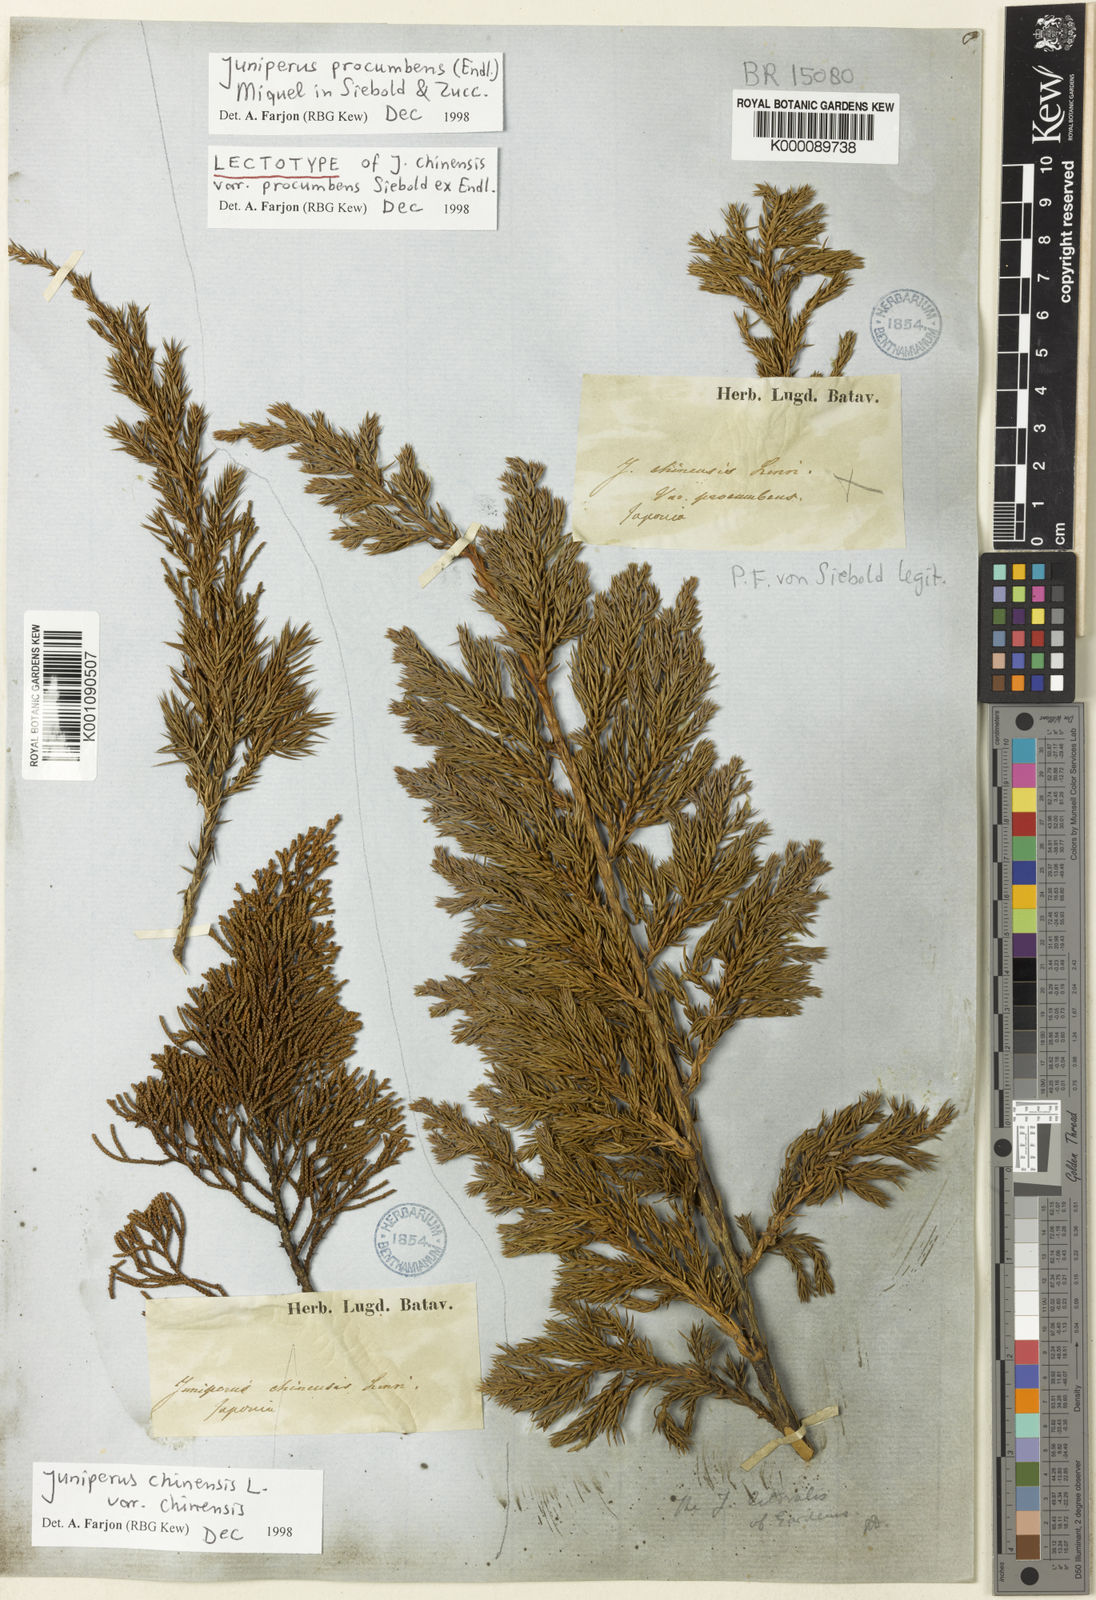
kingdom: Plantae
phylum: Tracheophyta
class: Pinopsida
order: Pinales
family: Cupressaceae
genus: Juniperus
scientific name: Juniperus procumbens
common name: Creeping juniper
